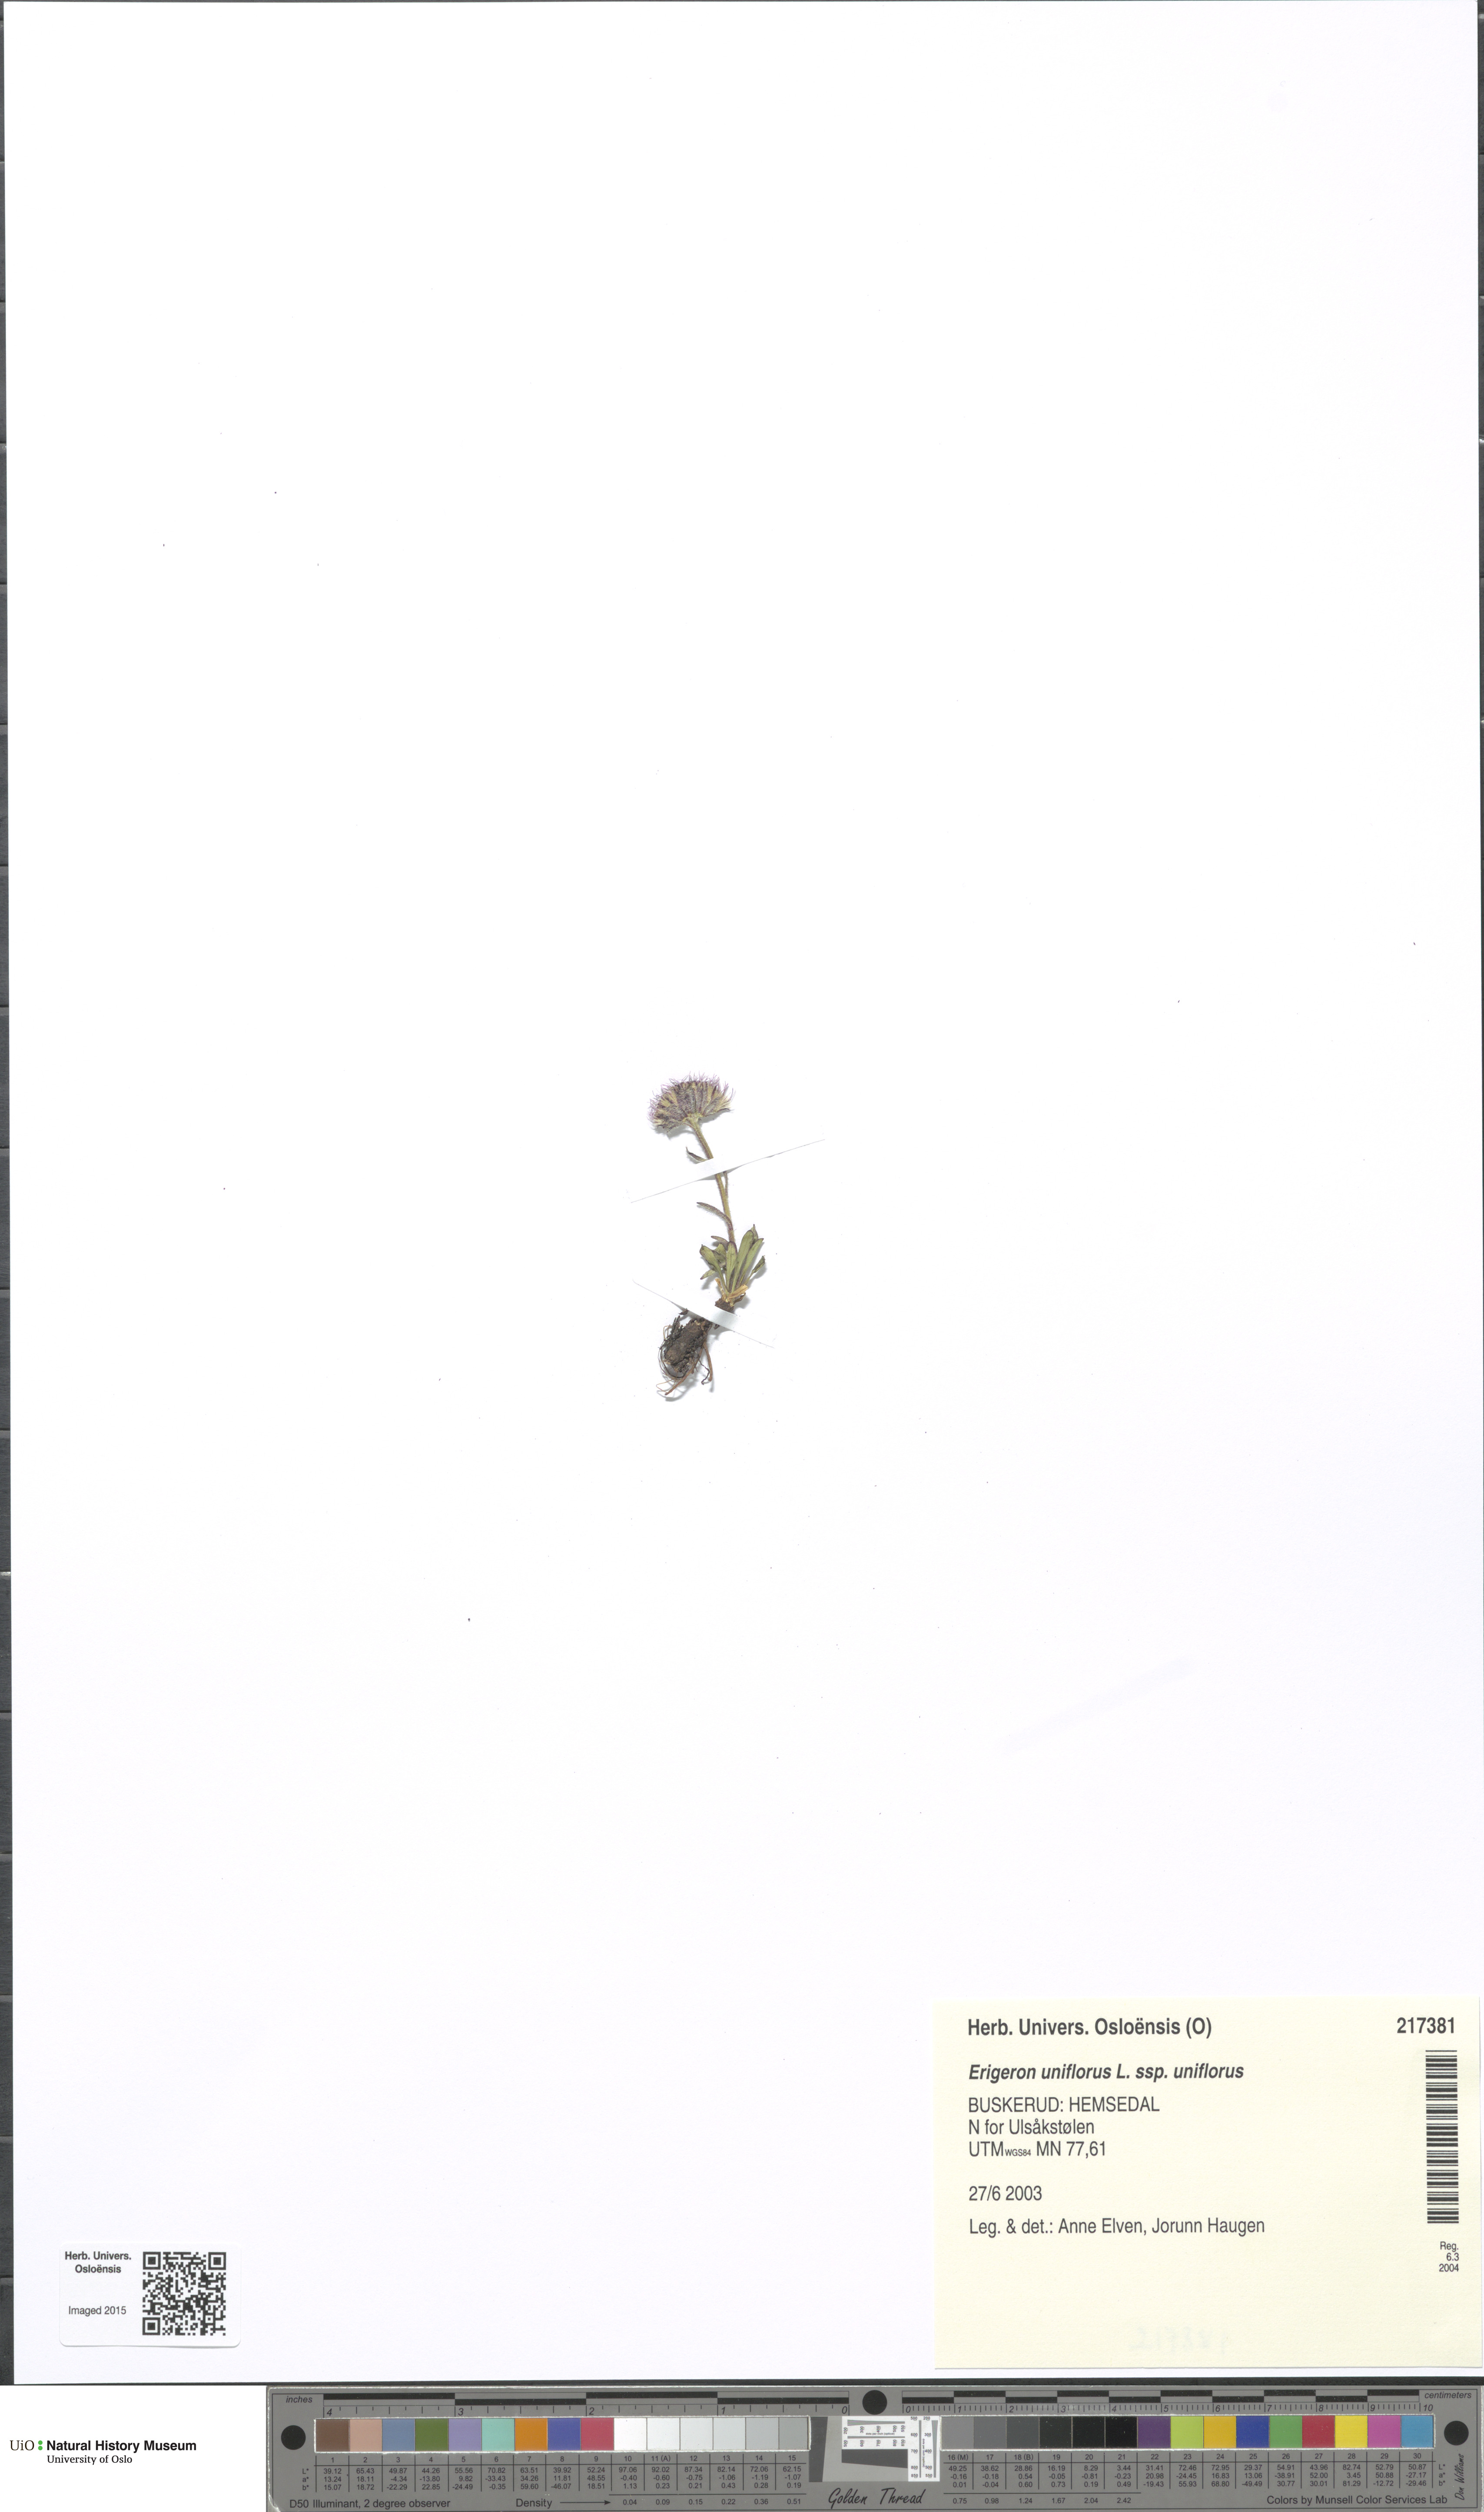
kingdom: Plantae
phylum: Tracheophyta
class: Magnoliopsida
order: Asterales
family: Asteraceae
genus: Erigeron
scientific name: Erigeron uniflorus
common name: Northern daisy
